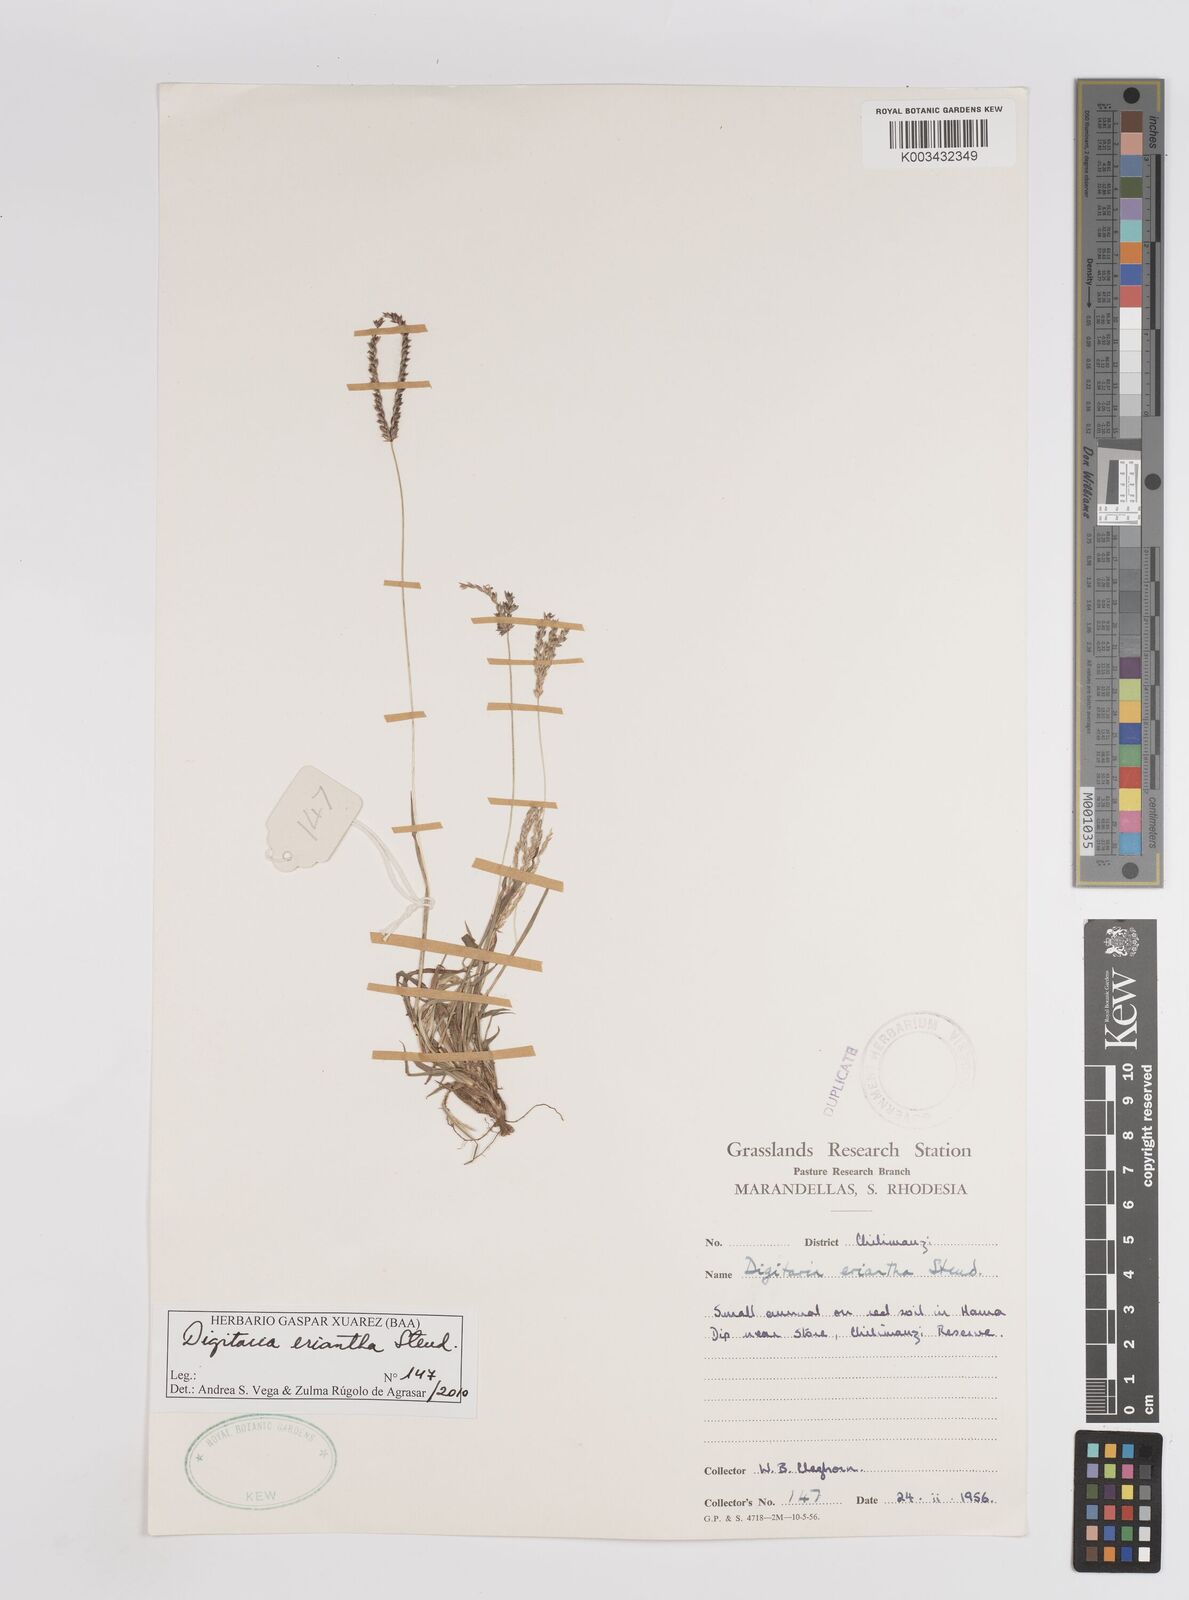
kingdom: Plantae
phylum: Tracheophyta
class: Liliopsida
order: Poales
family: Poaceae
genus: Digitaria
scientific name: Digitaria eriantha
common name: Digitgrass
